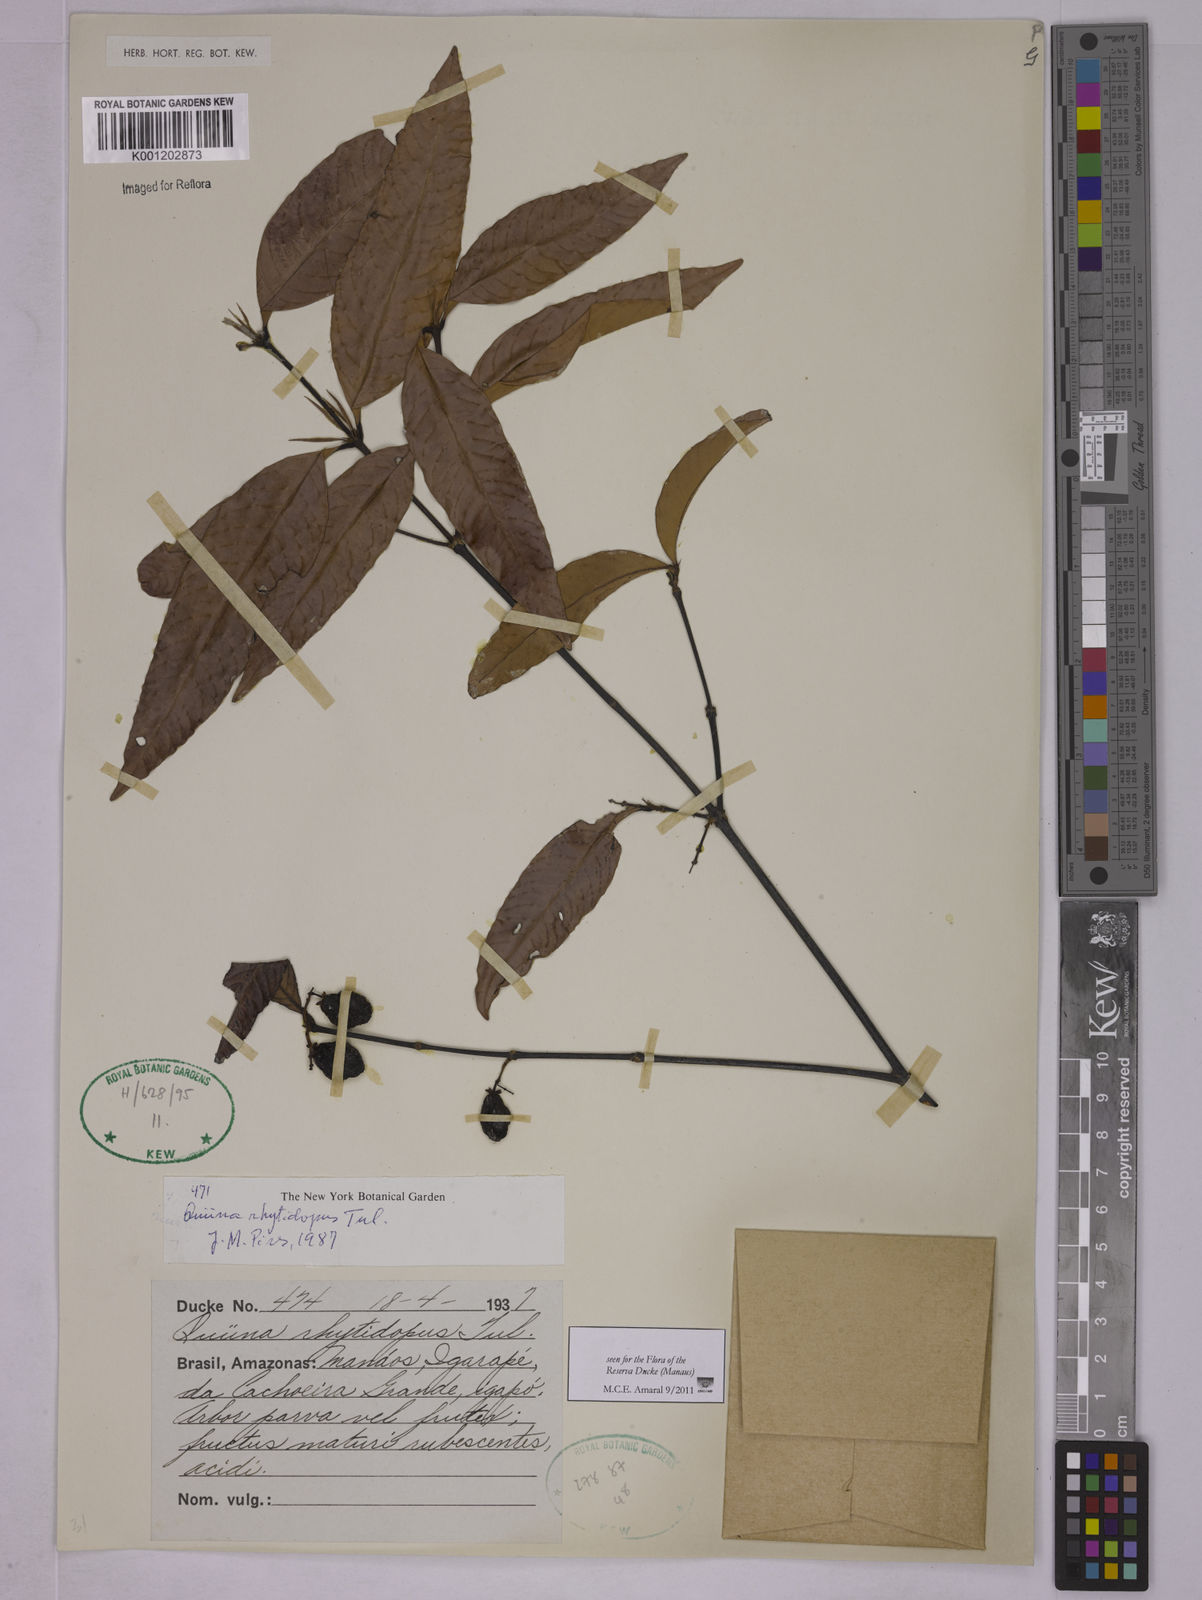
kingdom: Plantae
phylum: Tracheophyta
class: Magnoliopsida
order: Malpighiales
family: Quiinaceae
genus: Quiina
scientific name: Quiina rhytidopus
